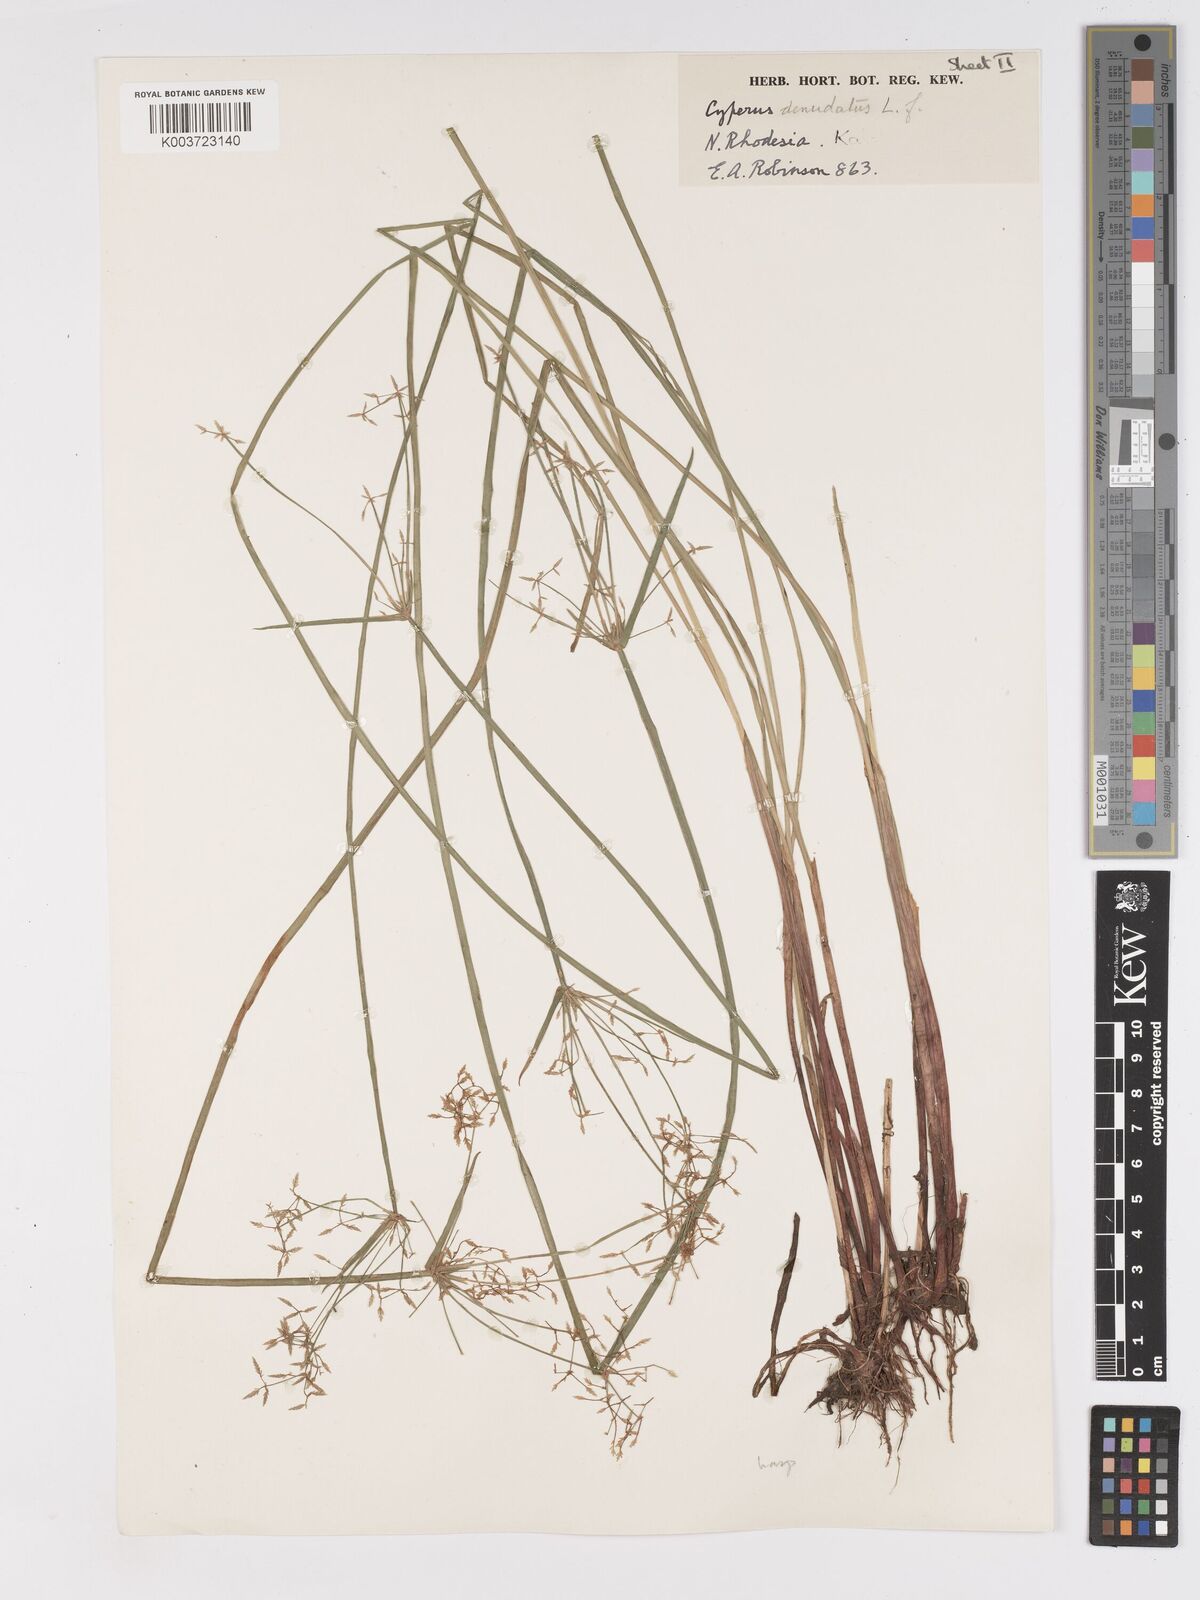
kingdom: Plantae
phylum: Tracheophyta
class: Liliopsida
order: Poales
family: Cyperaceae
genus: Cyperus
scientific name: Cyperus haspan
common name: Haspan flatsedge
